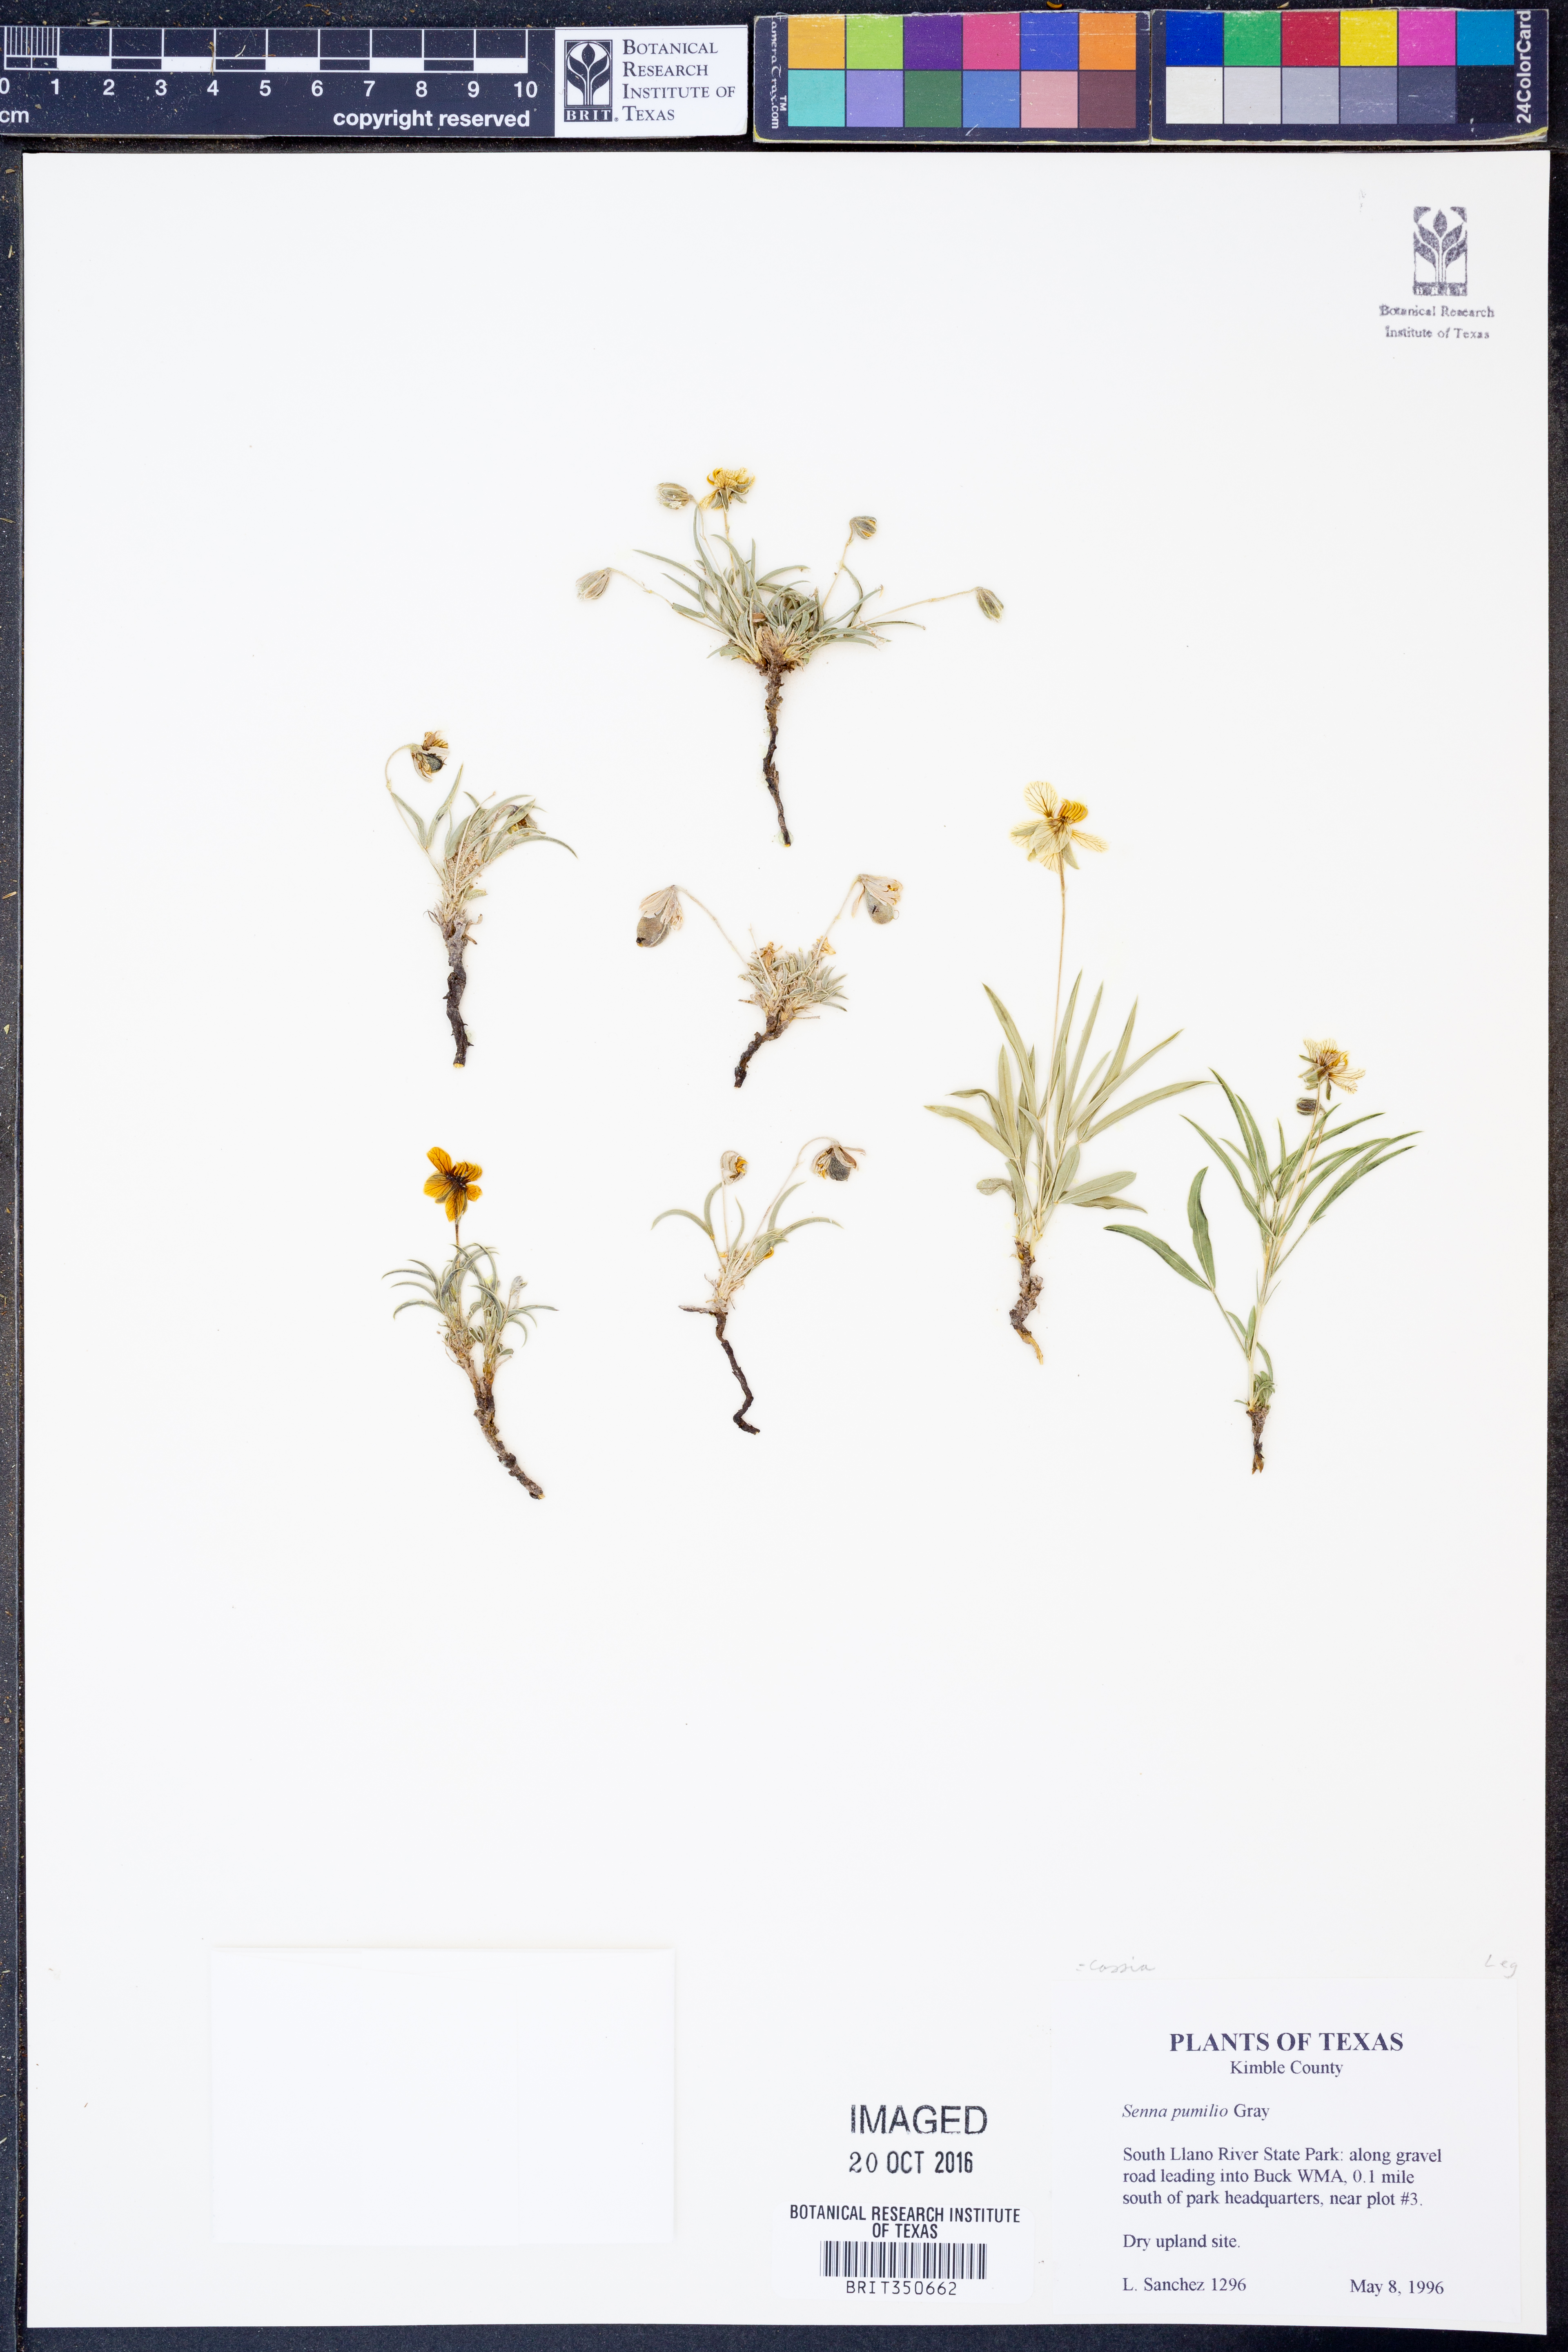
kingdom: Plantae
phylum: Tracheophyta
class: Magnoliopsida
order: Fabales
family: Fabaceae
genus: Senna
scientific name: Senna pumilio
